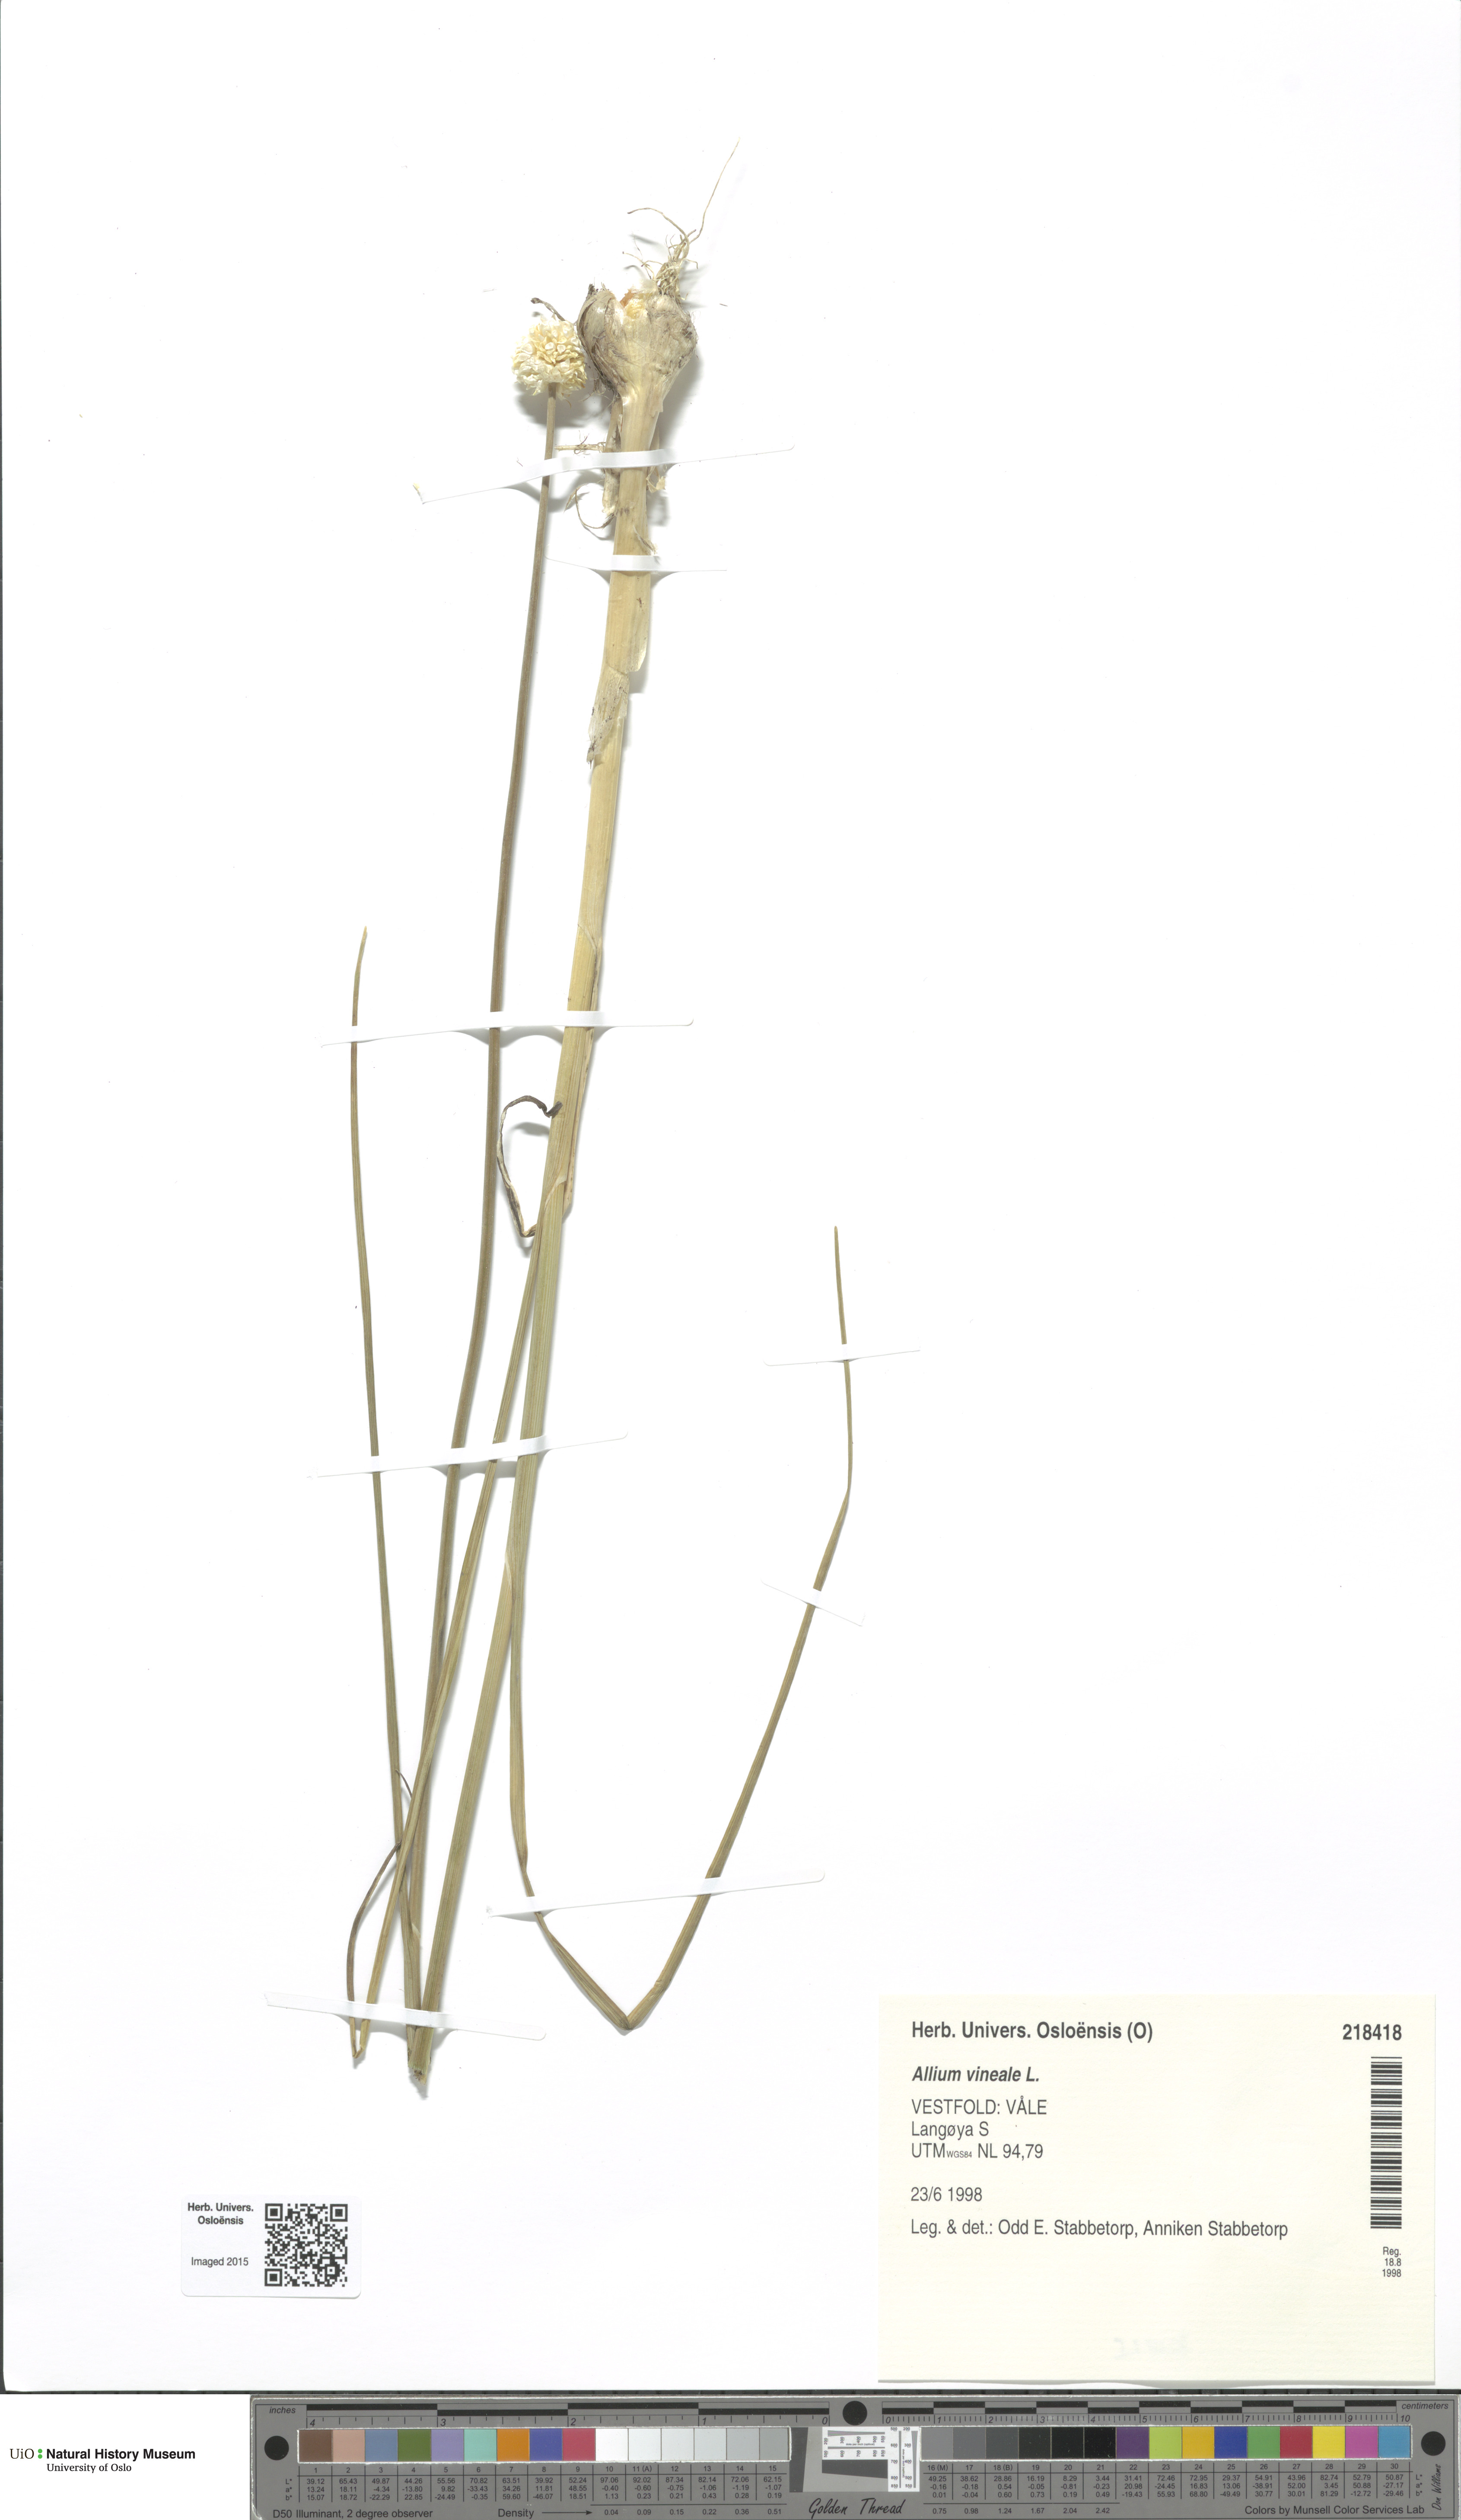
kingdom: Plantae
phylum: Tracheophyta
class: Liliopsida
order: Asparagales
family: Amaryllidaceae
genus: Allium
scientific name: Allium vineale
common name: Crow garlic
